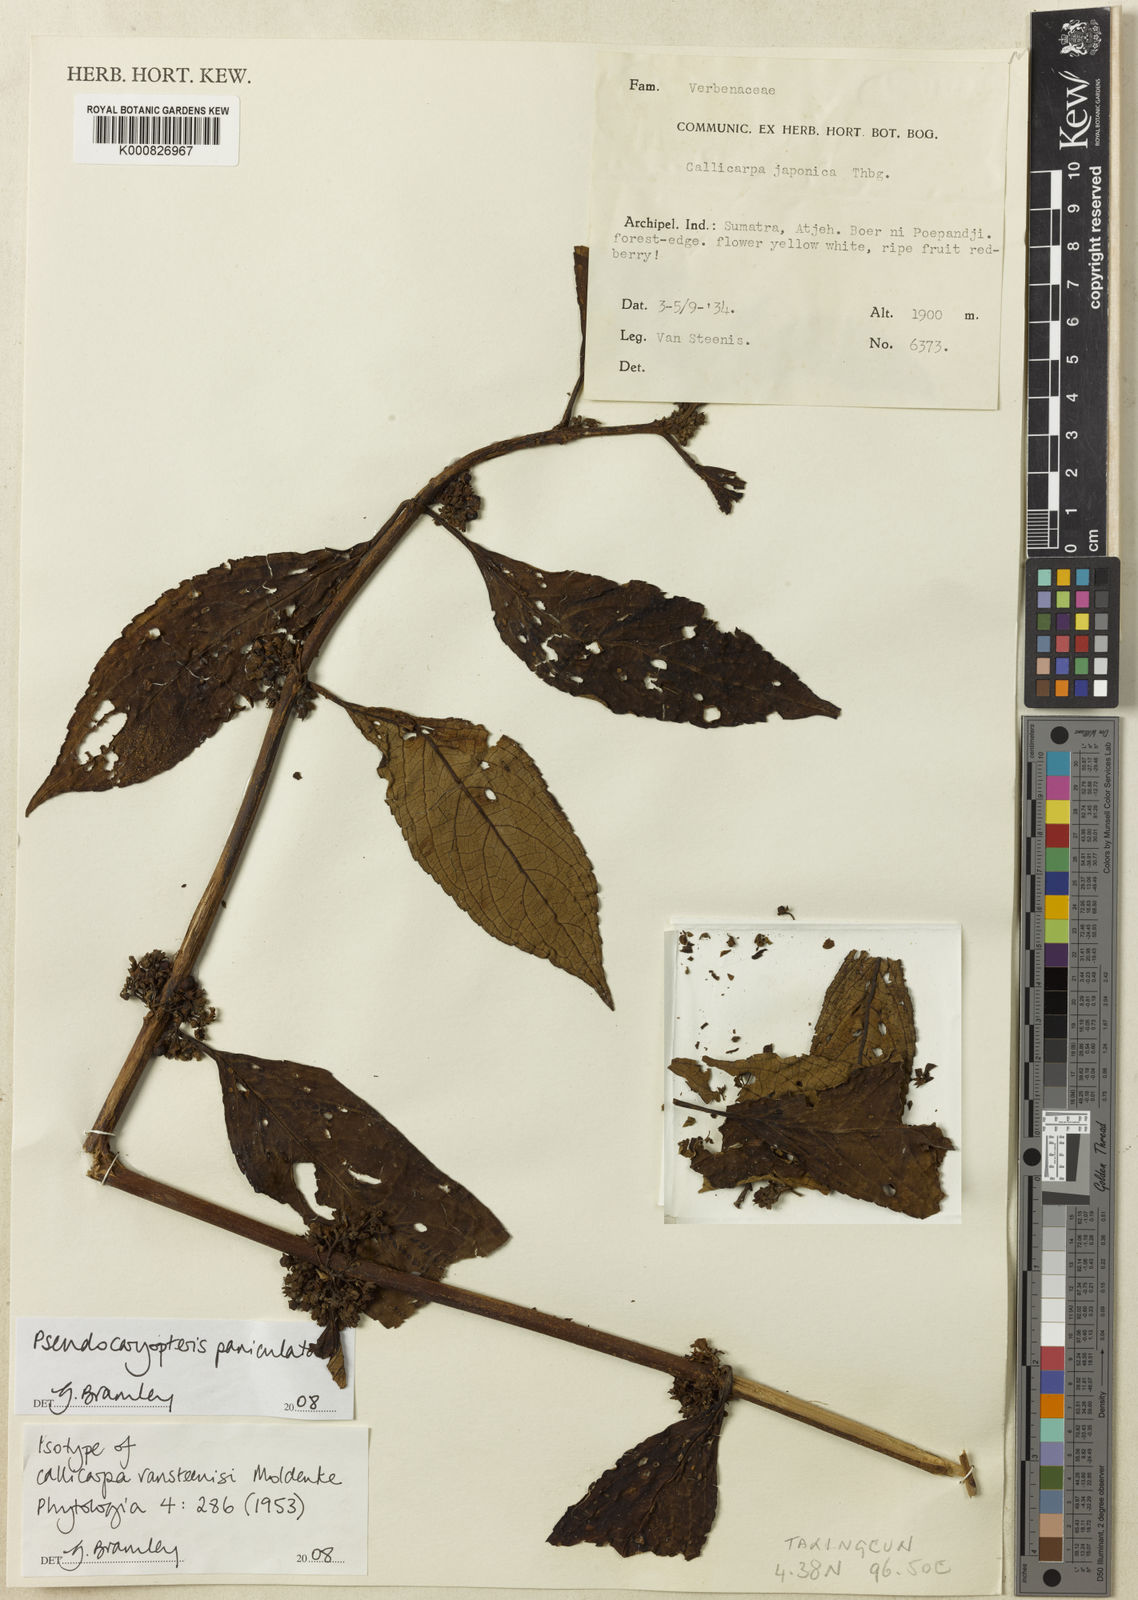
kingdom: Plantae
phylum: Tracheophyta
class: Magnoliopsida
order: Lamiales
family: Lamiaceae
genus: Pseudocaryopteris
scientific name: Pseudocaryopteris foetida
